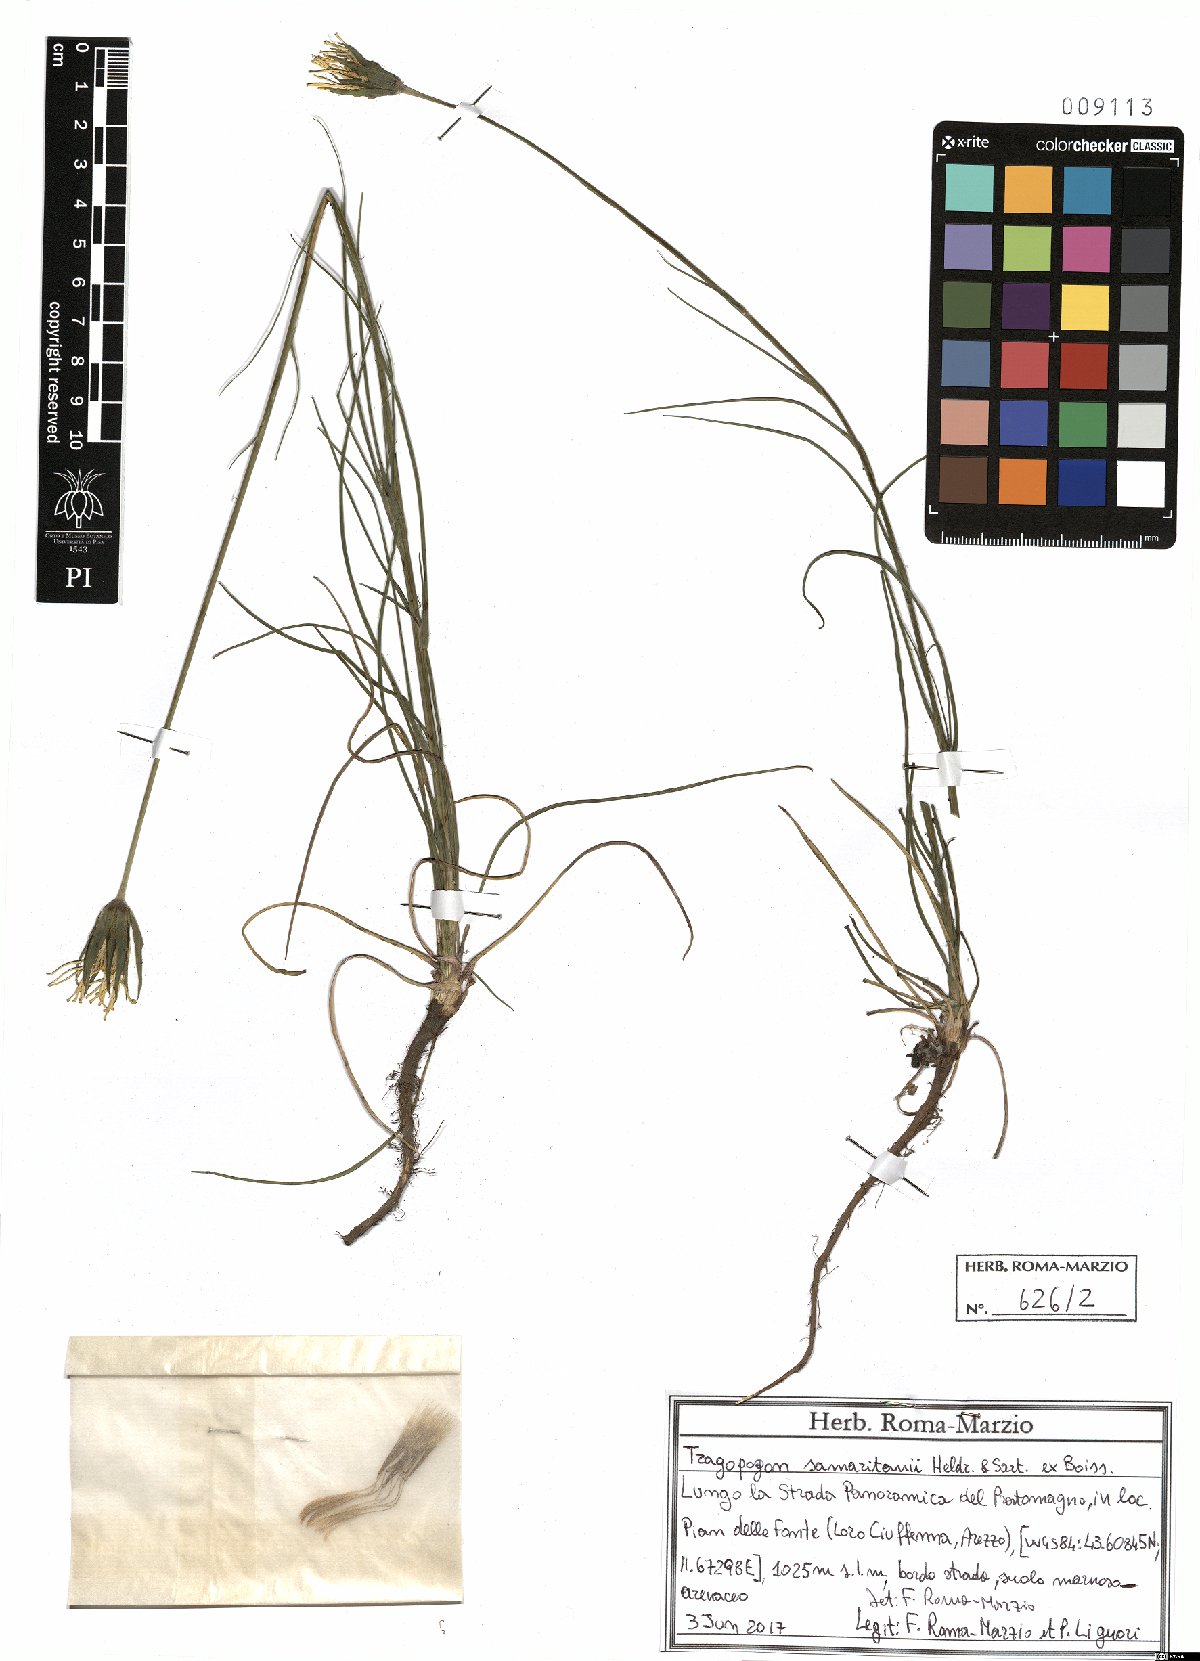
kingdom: Plantae
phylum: Tracheophyta
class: Magnoliopsida
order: Asterales
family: Asteraceae
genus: Tragopogon
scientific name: Tragopogon samaritani
